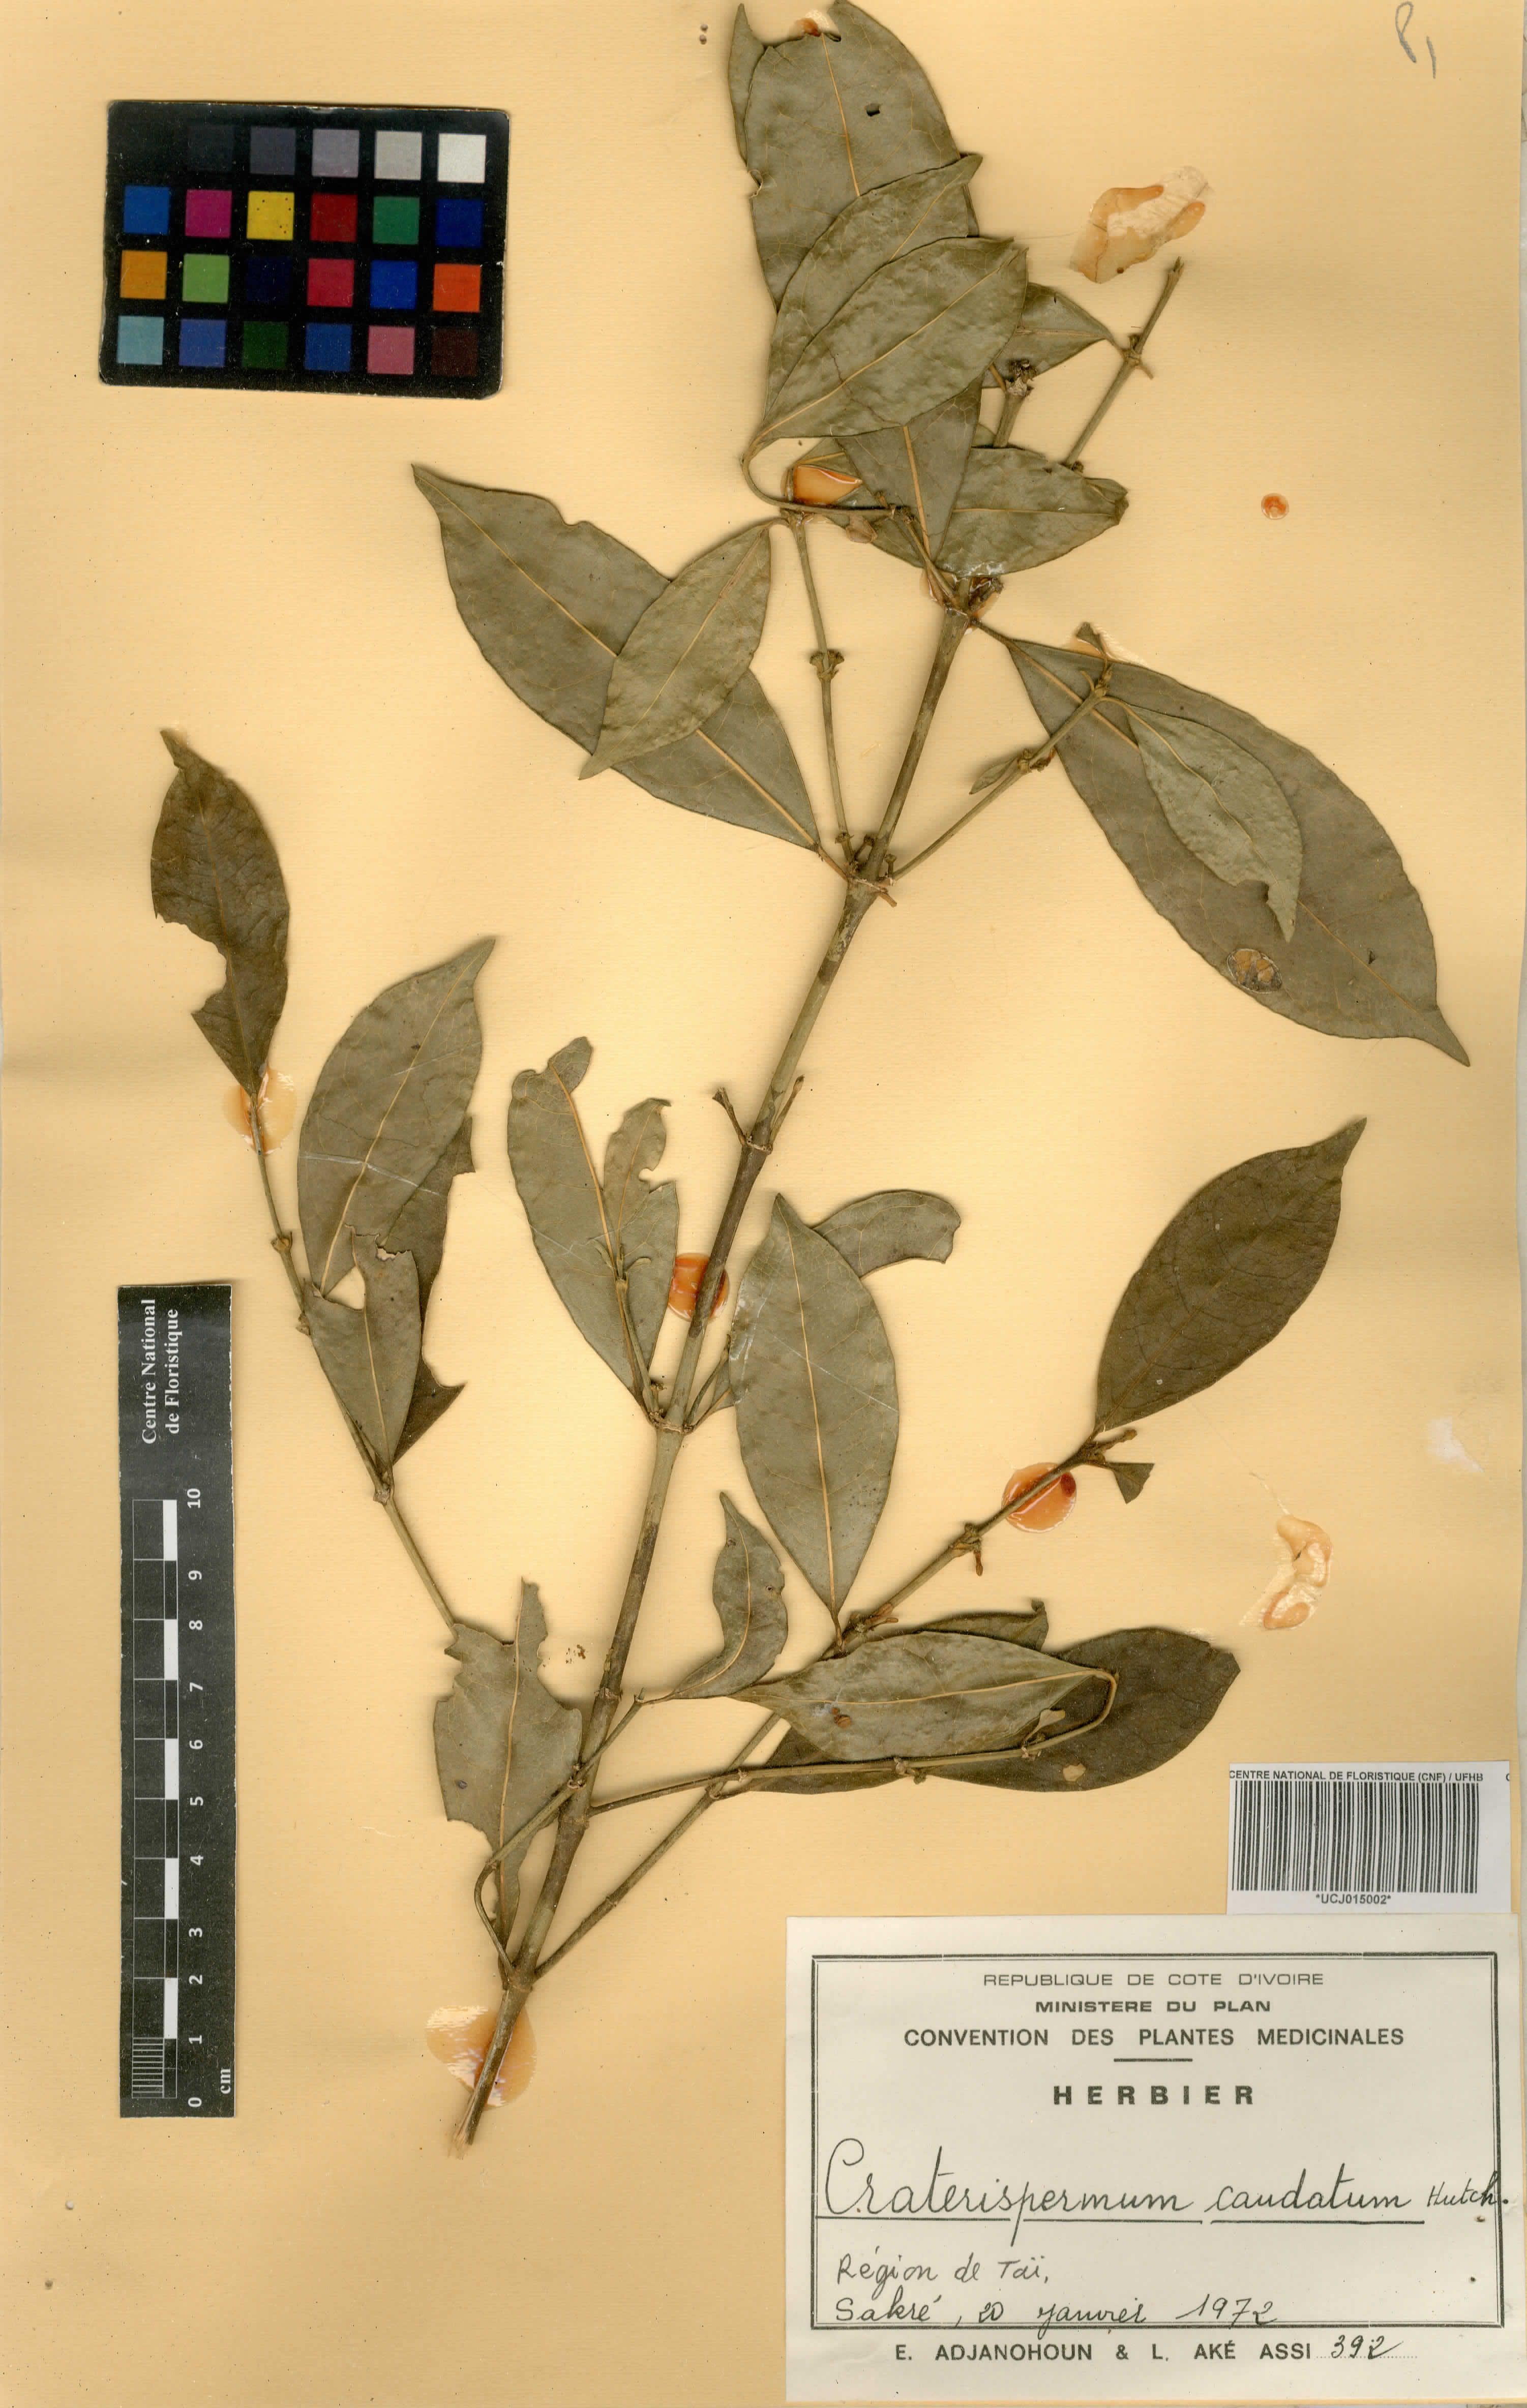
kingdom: Plantae
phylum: Tracheophyta
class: Magnoliopsida
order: Gentianales
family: Rubiaceae
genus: Craterispermum
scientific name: Craterispermum caudatum
